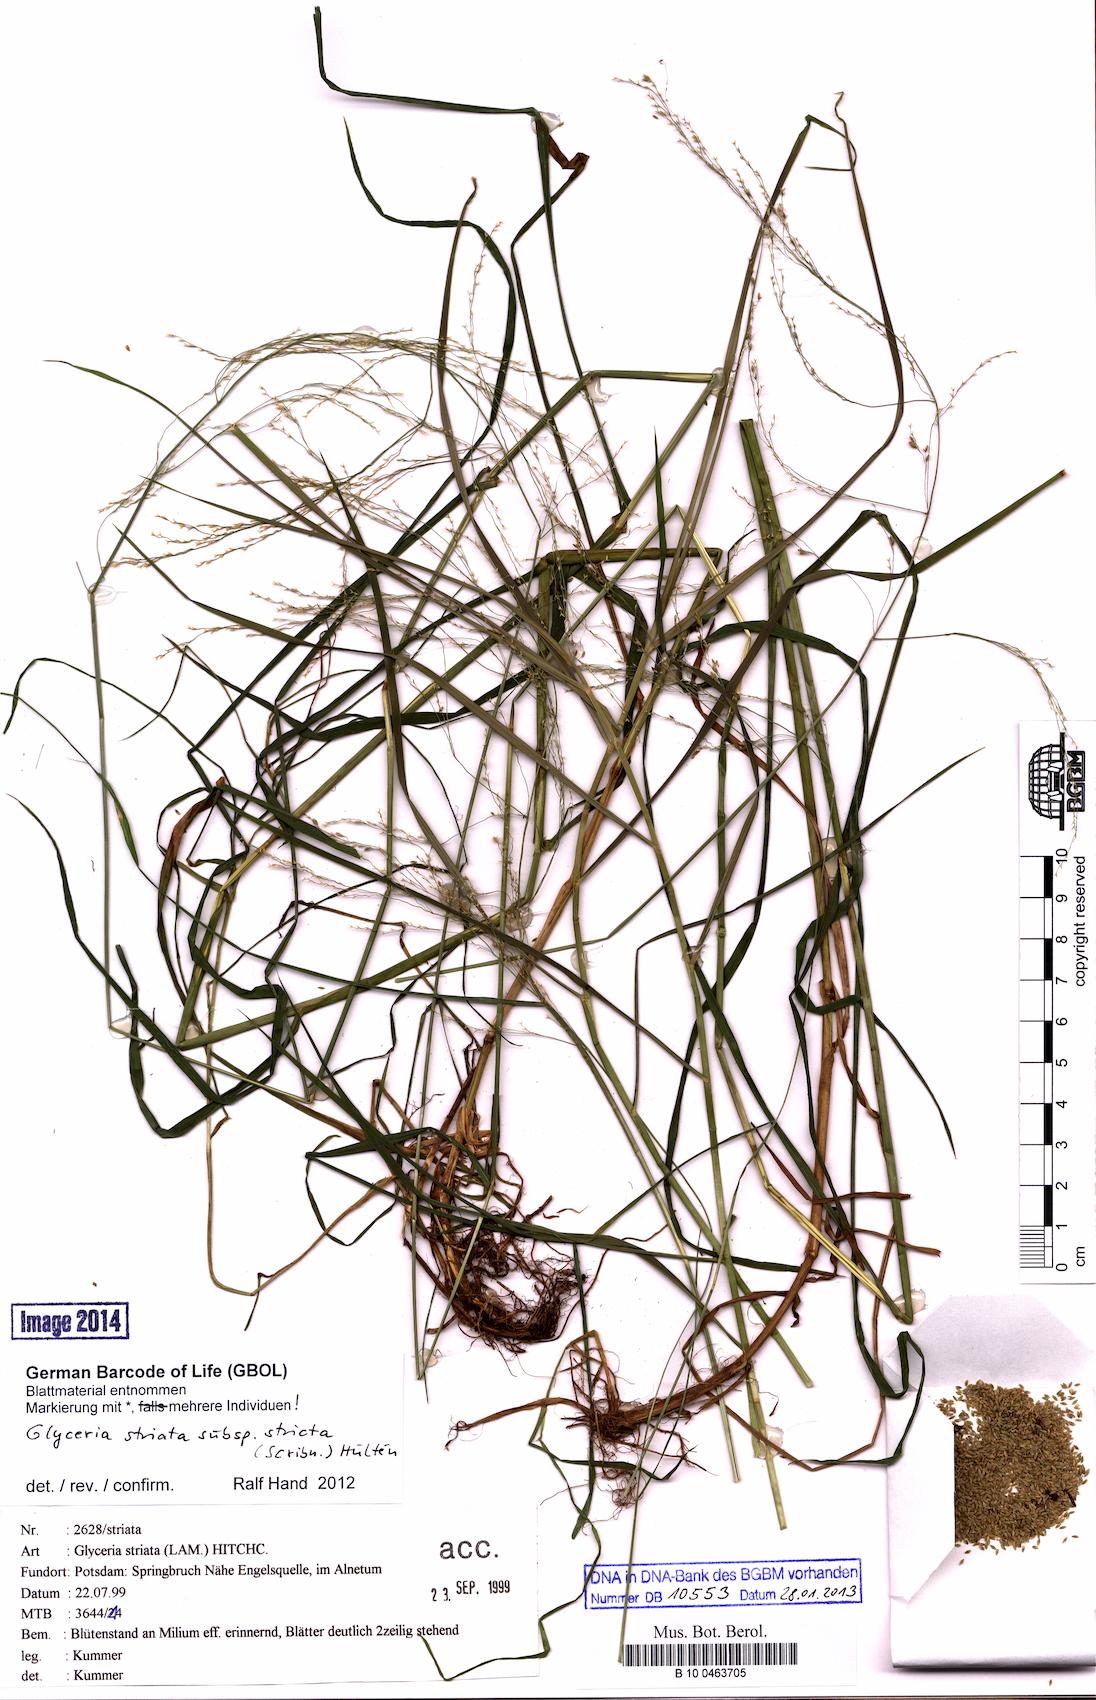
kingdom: Plantae
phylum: Tracheophyta
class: Liliopsida
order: Poales
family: Poaceae
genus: Glyceria
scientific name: Glyceria striata
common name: Fowl manna grass
